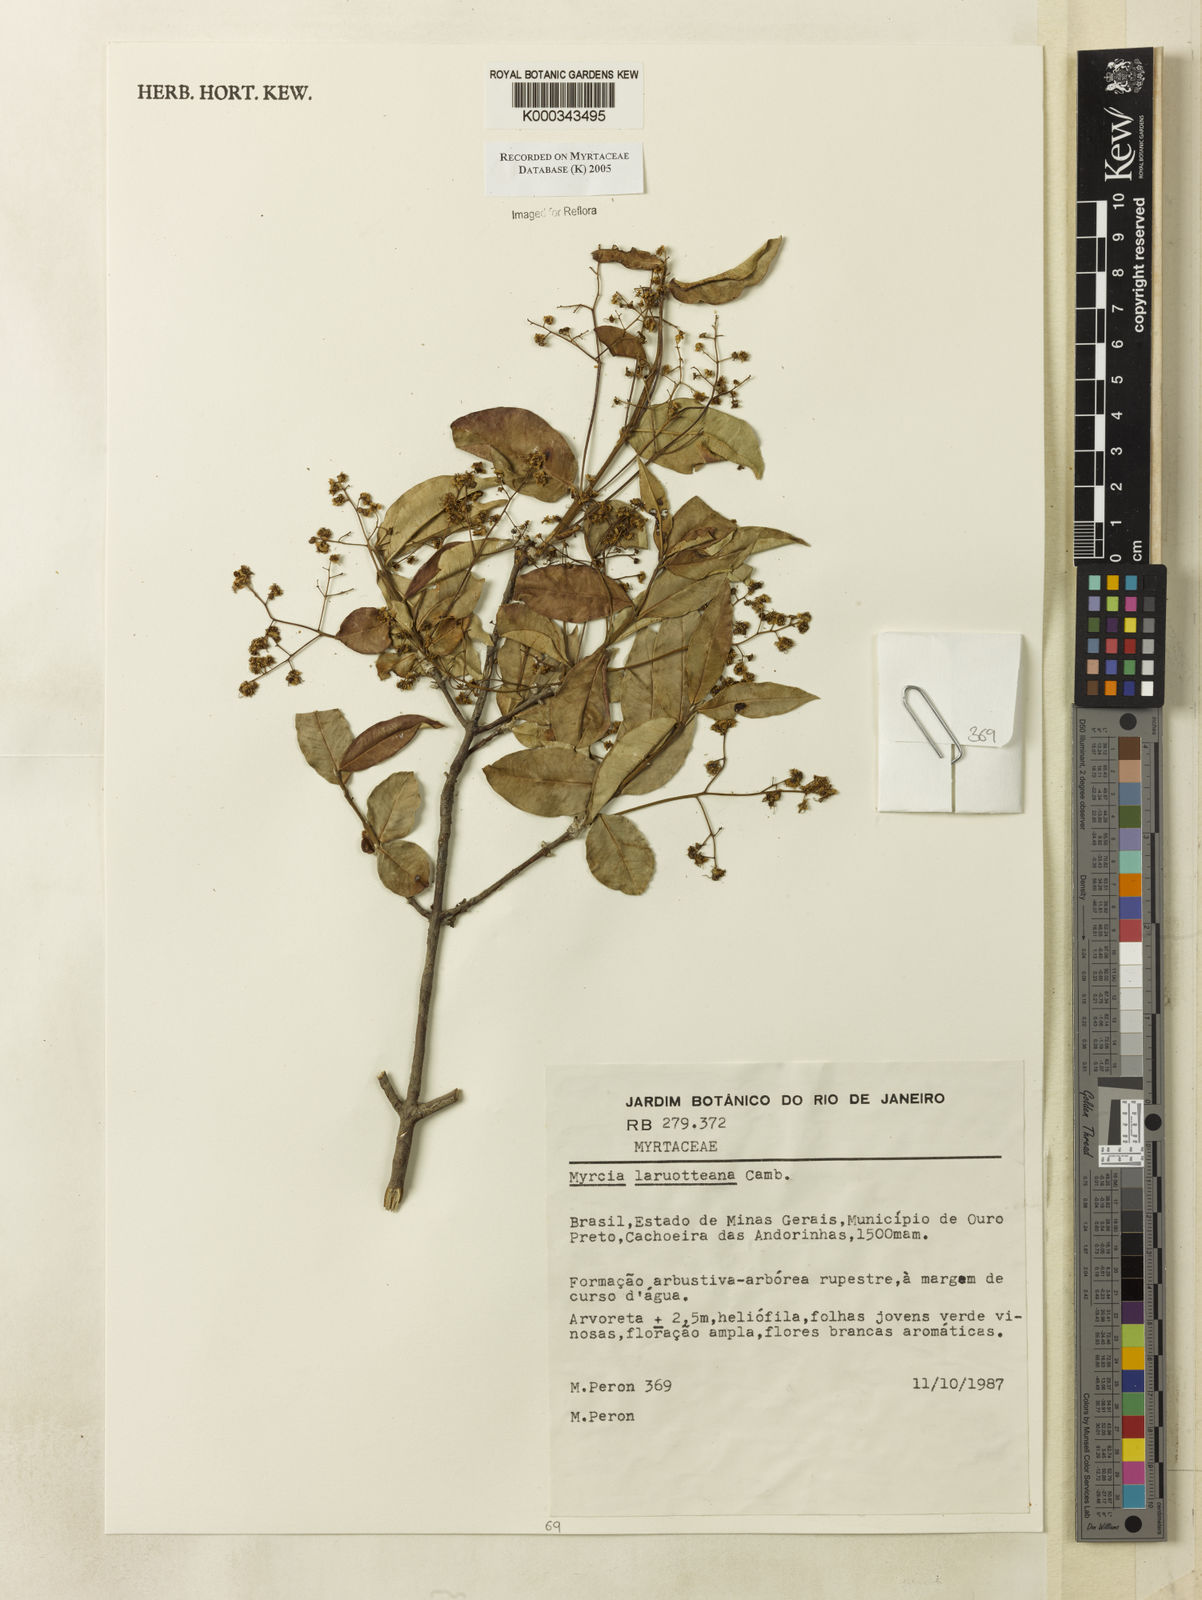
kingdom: Plantae
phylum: Tracheophyta
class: Magnoliopsida
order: Myrtales
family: Myrtaceae
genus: Myrcia
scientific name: Myrcia laruotteana
